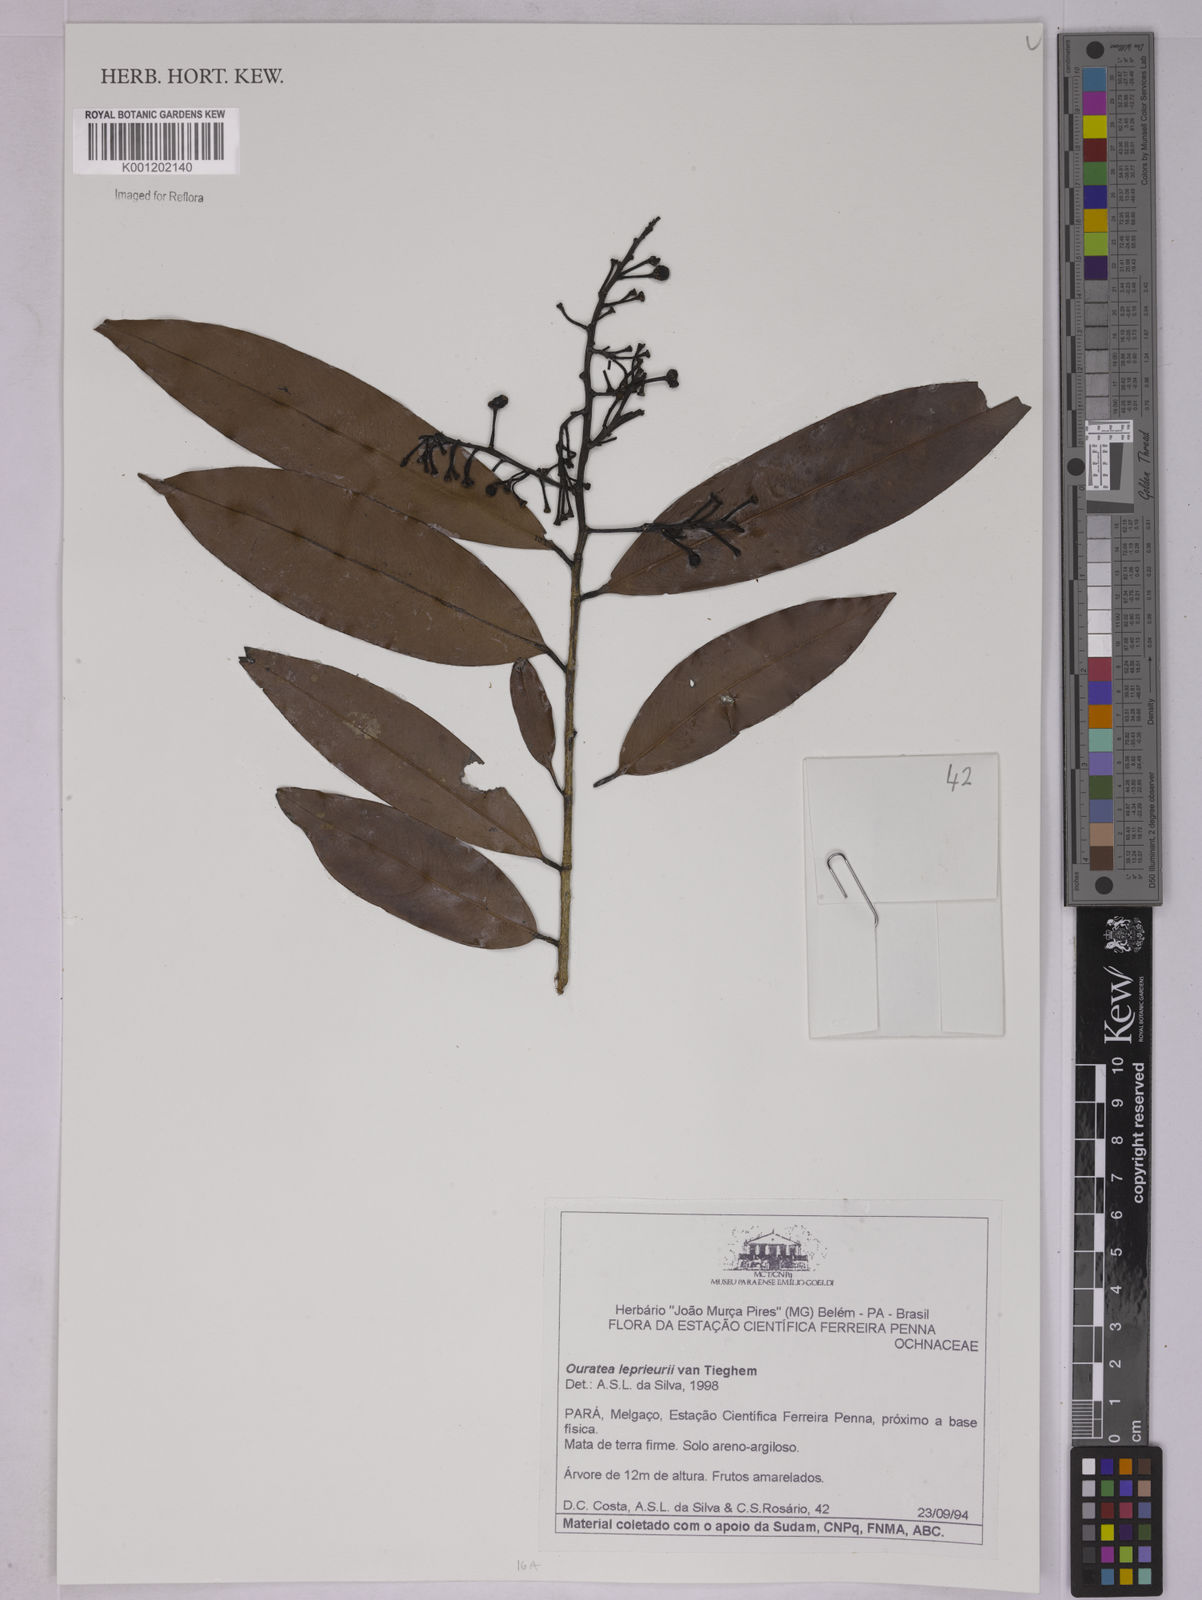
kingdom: Plantae
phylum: Tracheophyta
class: Magnoliopsida
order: Malpighiales
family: Ochnaceae
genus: Ouratea
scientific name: Ouratea leprieuri
